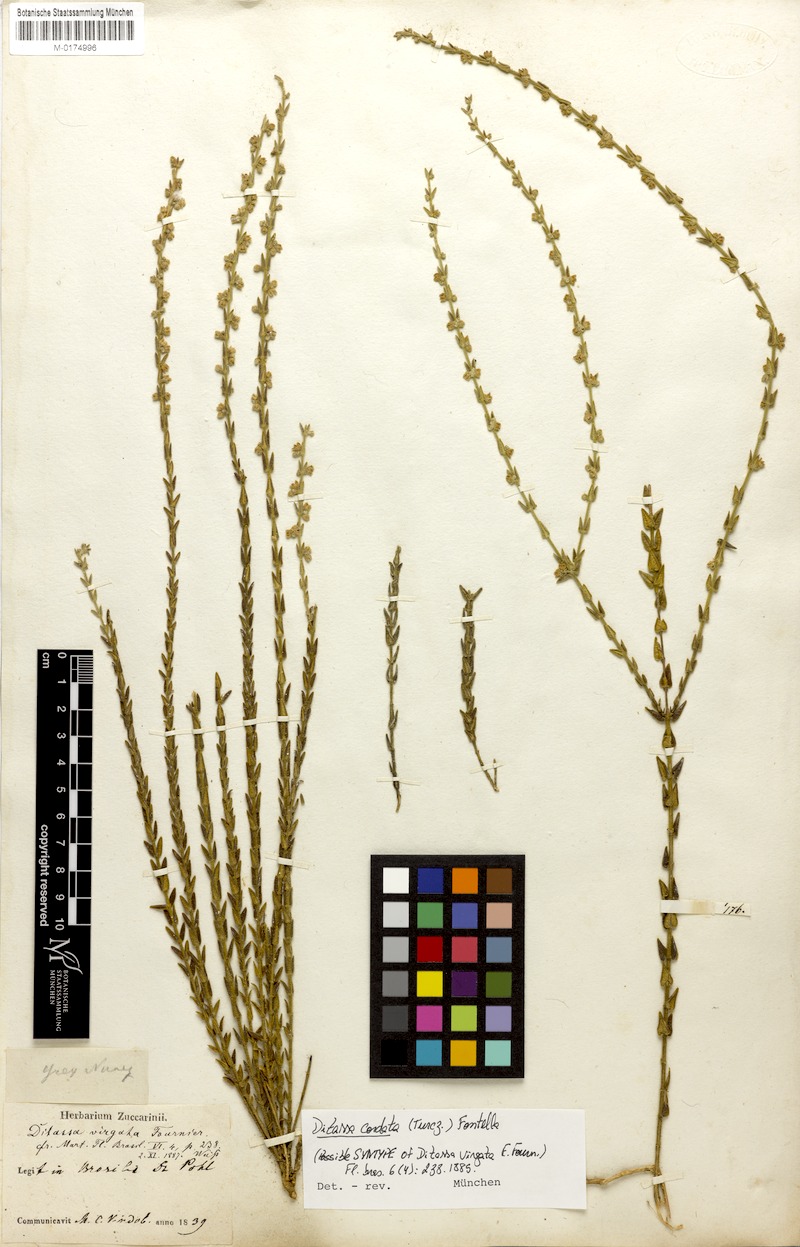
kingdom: Plantae
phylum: Tracheophyta
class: Magnoliopsida
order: Gentianales
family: Apocynaceae
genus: Minaria
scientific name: Minaria cordata
